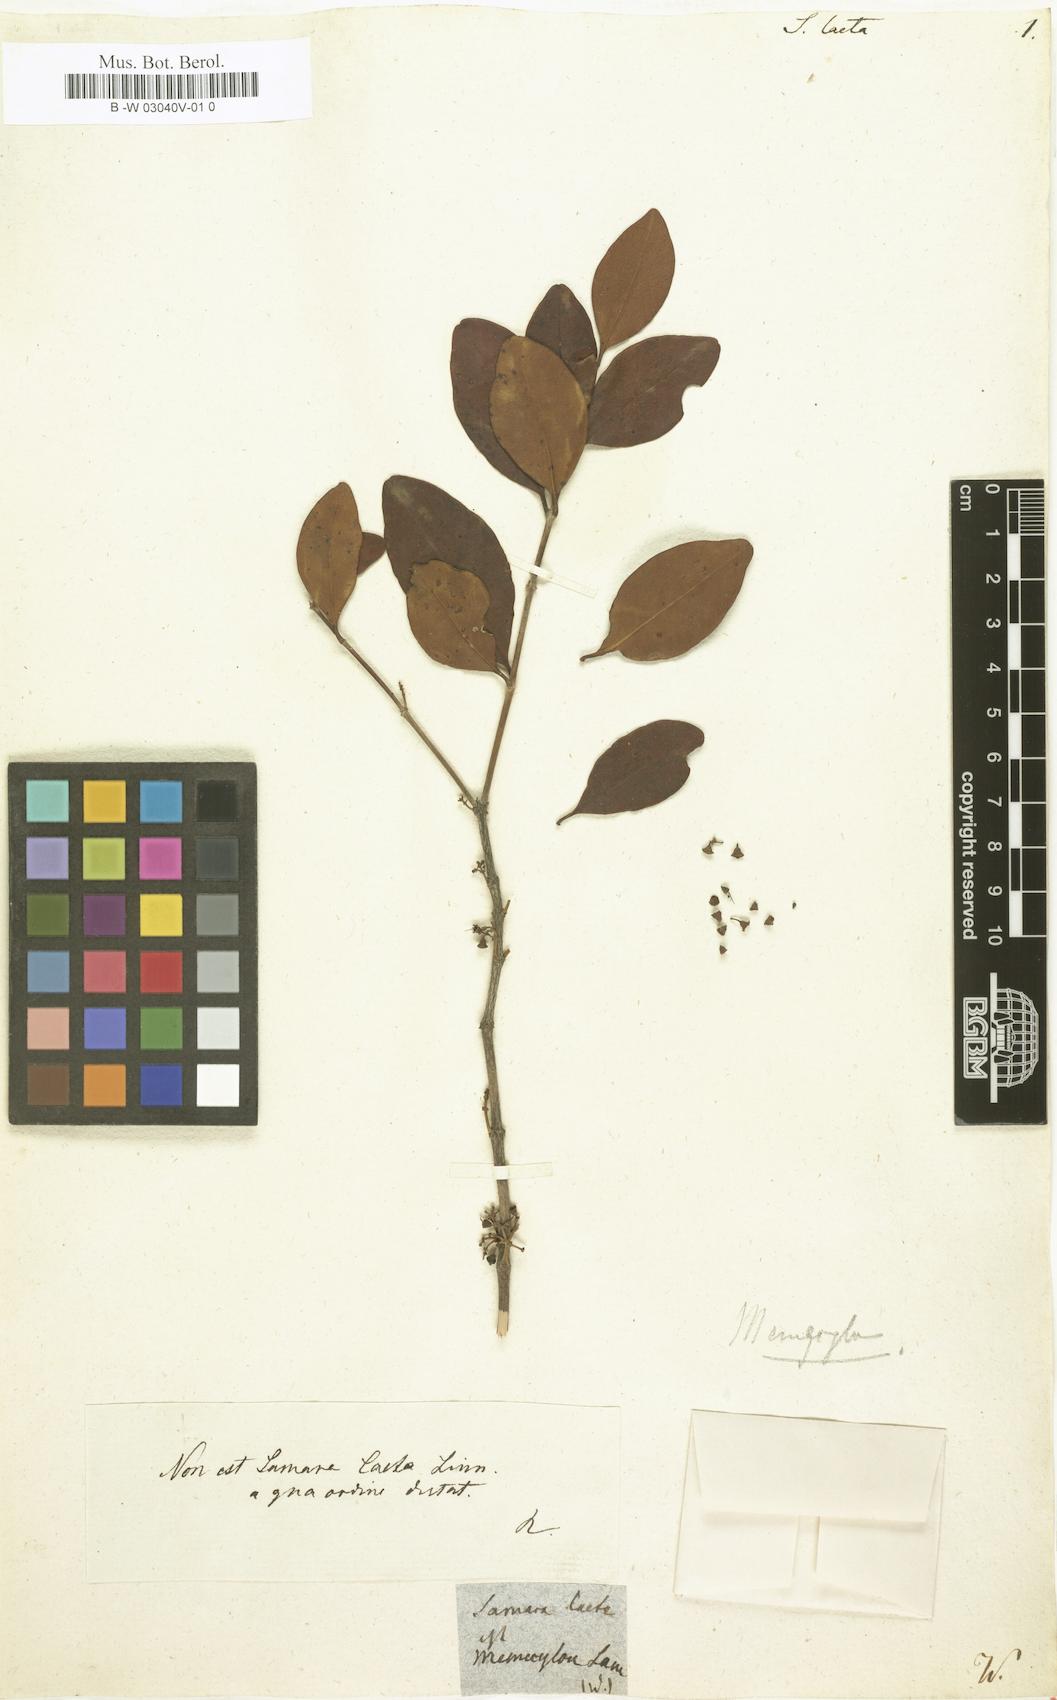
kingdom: Plantae
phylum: Tracheophyta
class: Magnoliopsida
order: Ericales
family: Primulaceae
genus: Embelia
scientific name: Embelia laeta
